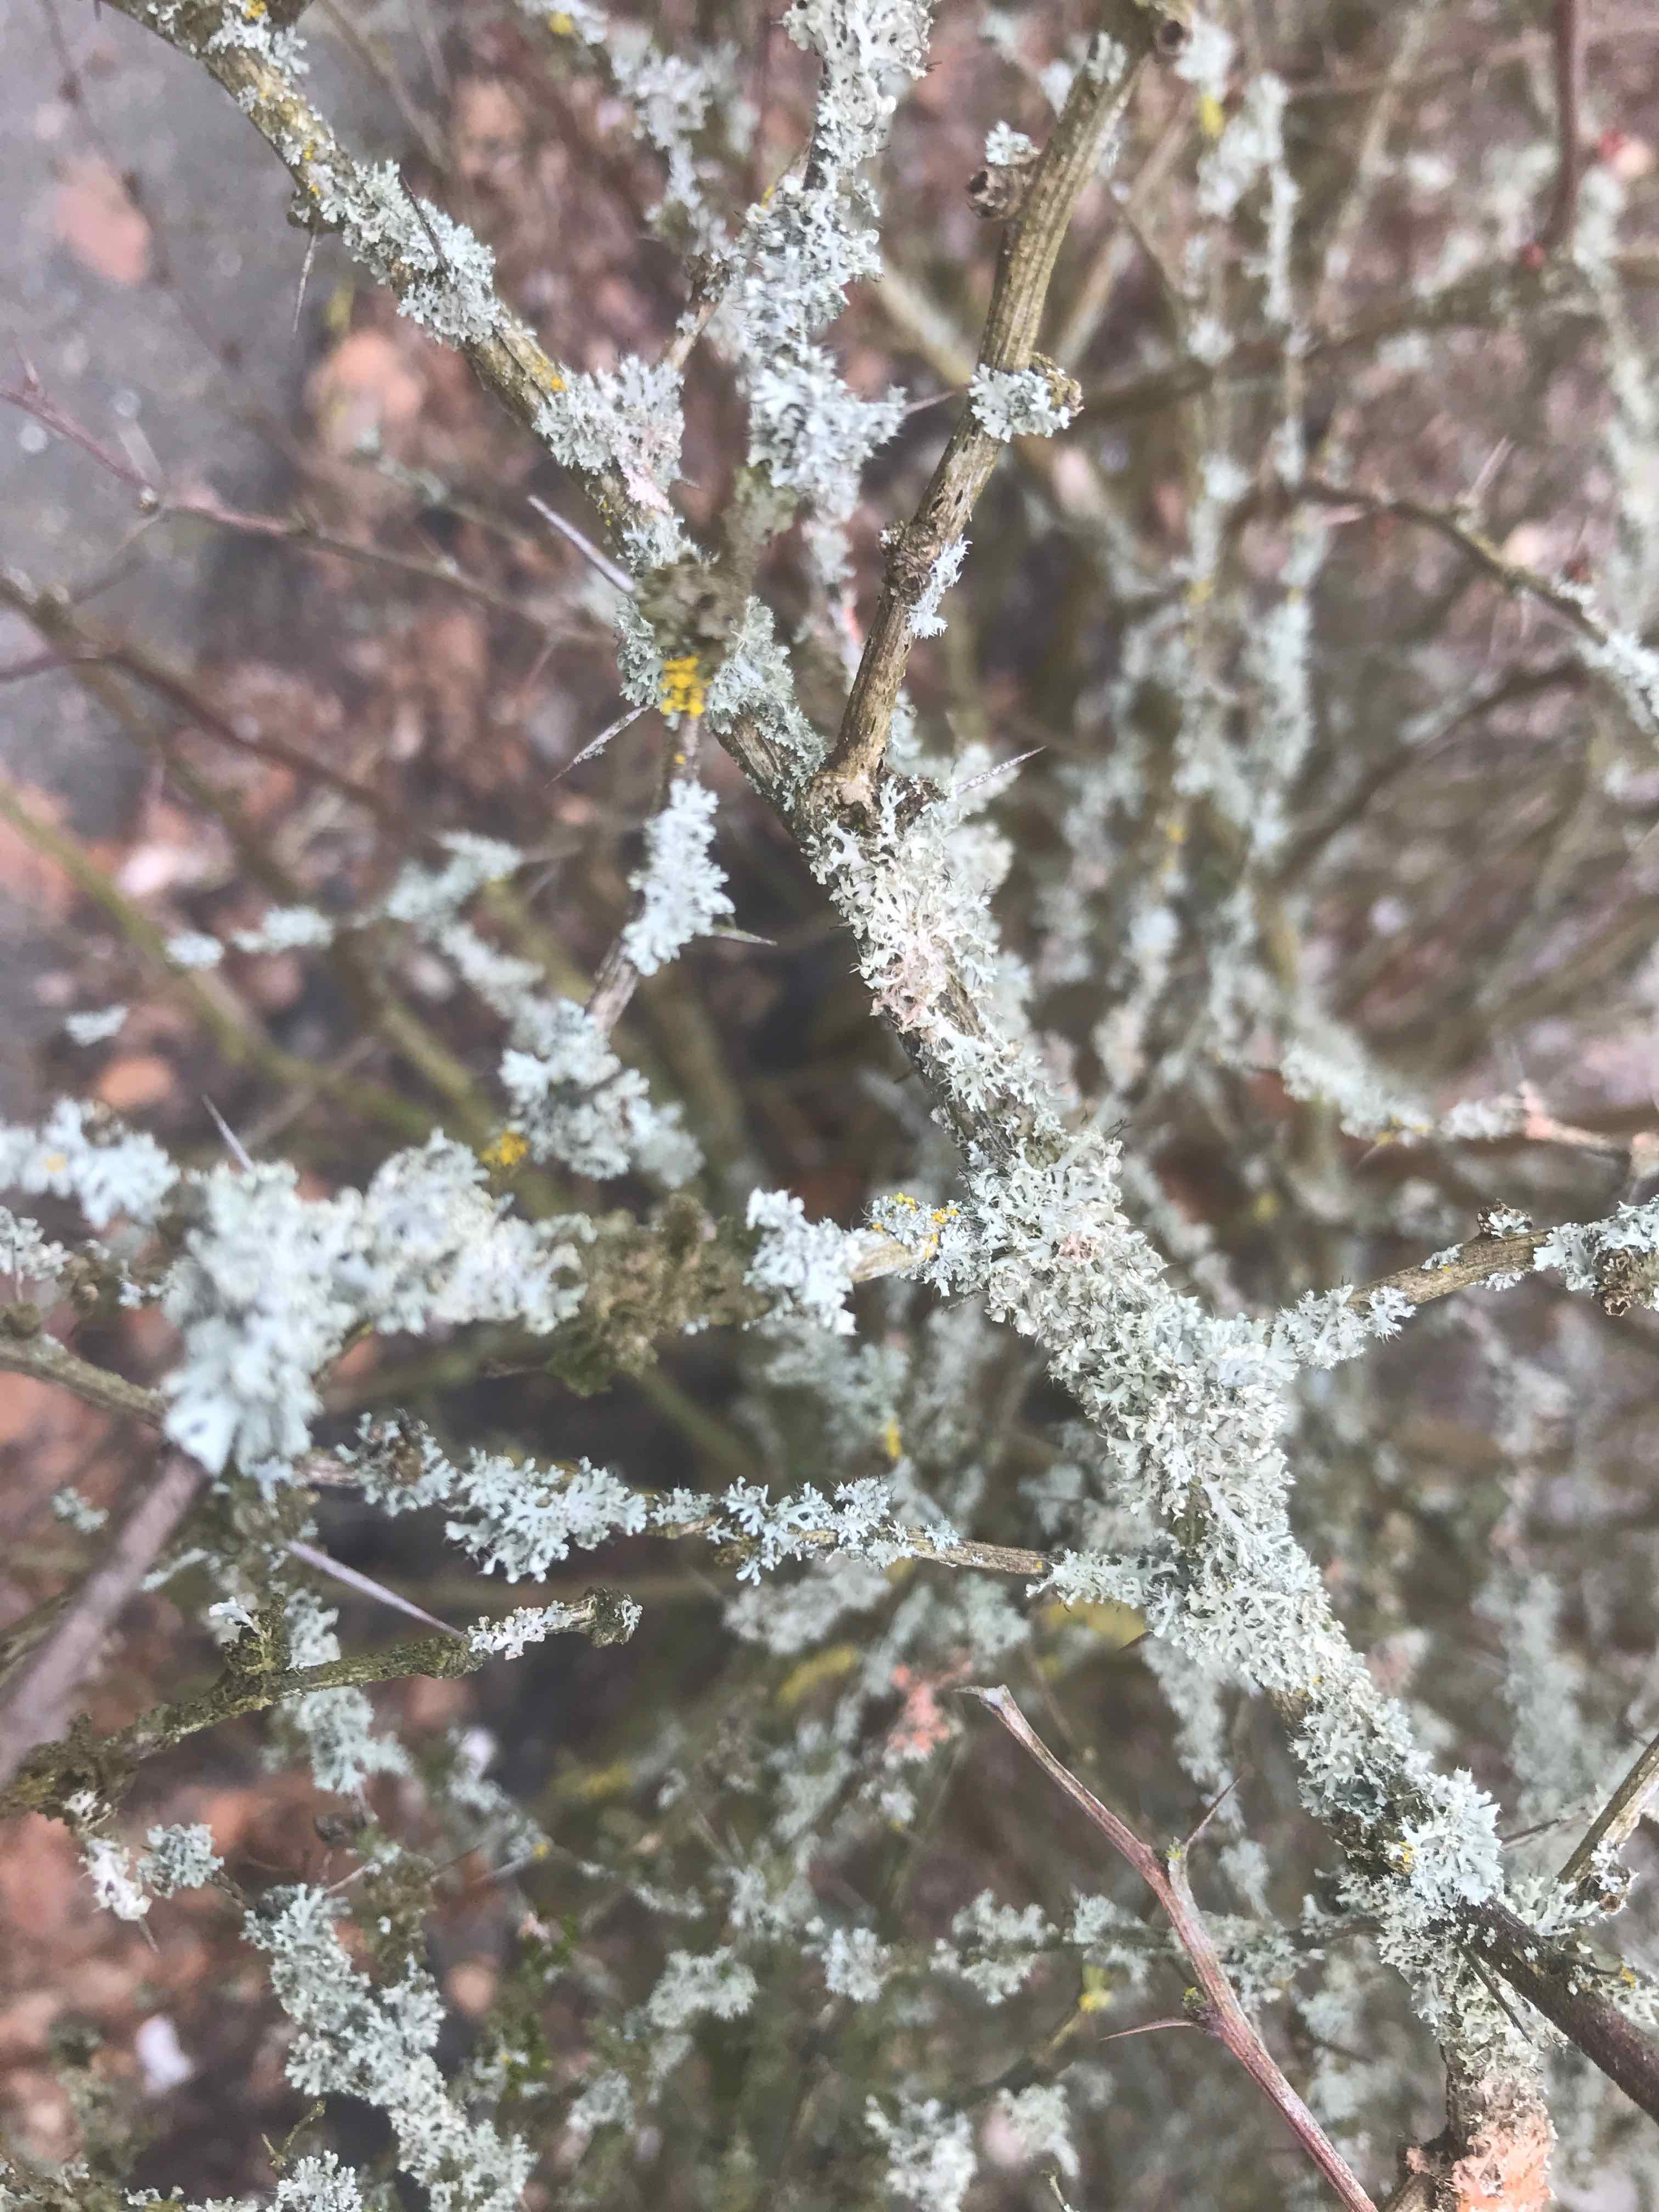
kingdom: Fungi
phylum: Ascomycota
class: Lecanoromycetes
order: Caliciales
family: Physciaceae
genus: Physcia
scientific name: Physcia tenella
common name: spæd rosetlav
